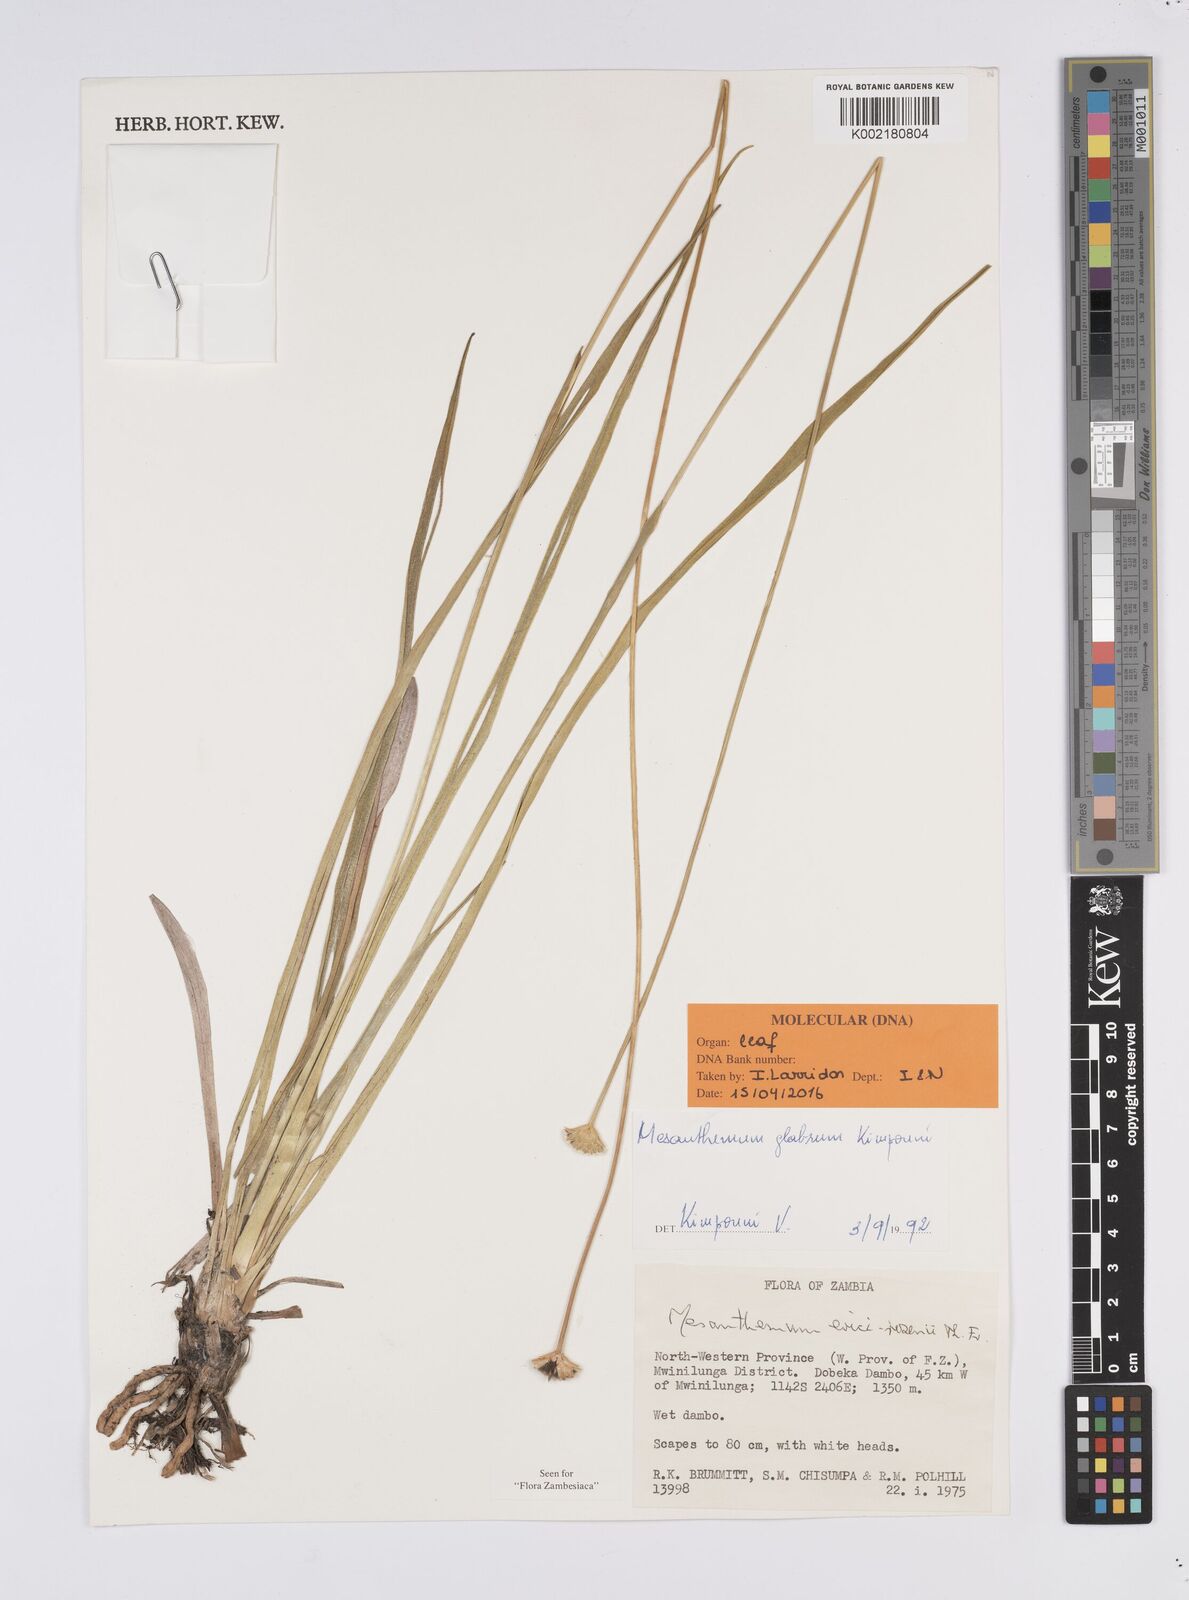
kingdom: Plantae
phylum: Tracheophyta
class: Liliopsida
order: Poales
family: Eriocaulaceae
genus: Mesanthemum
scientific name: Mesanthemum glabrum
